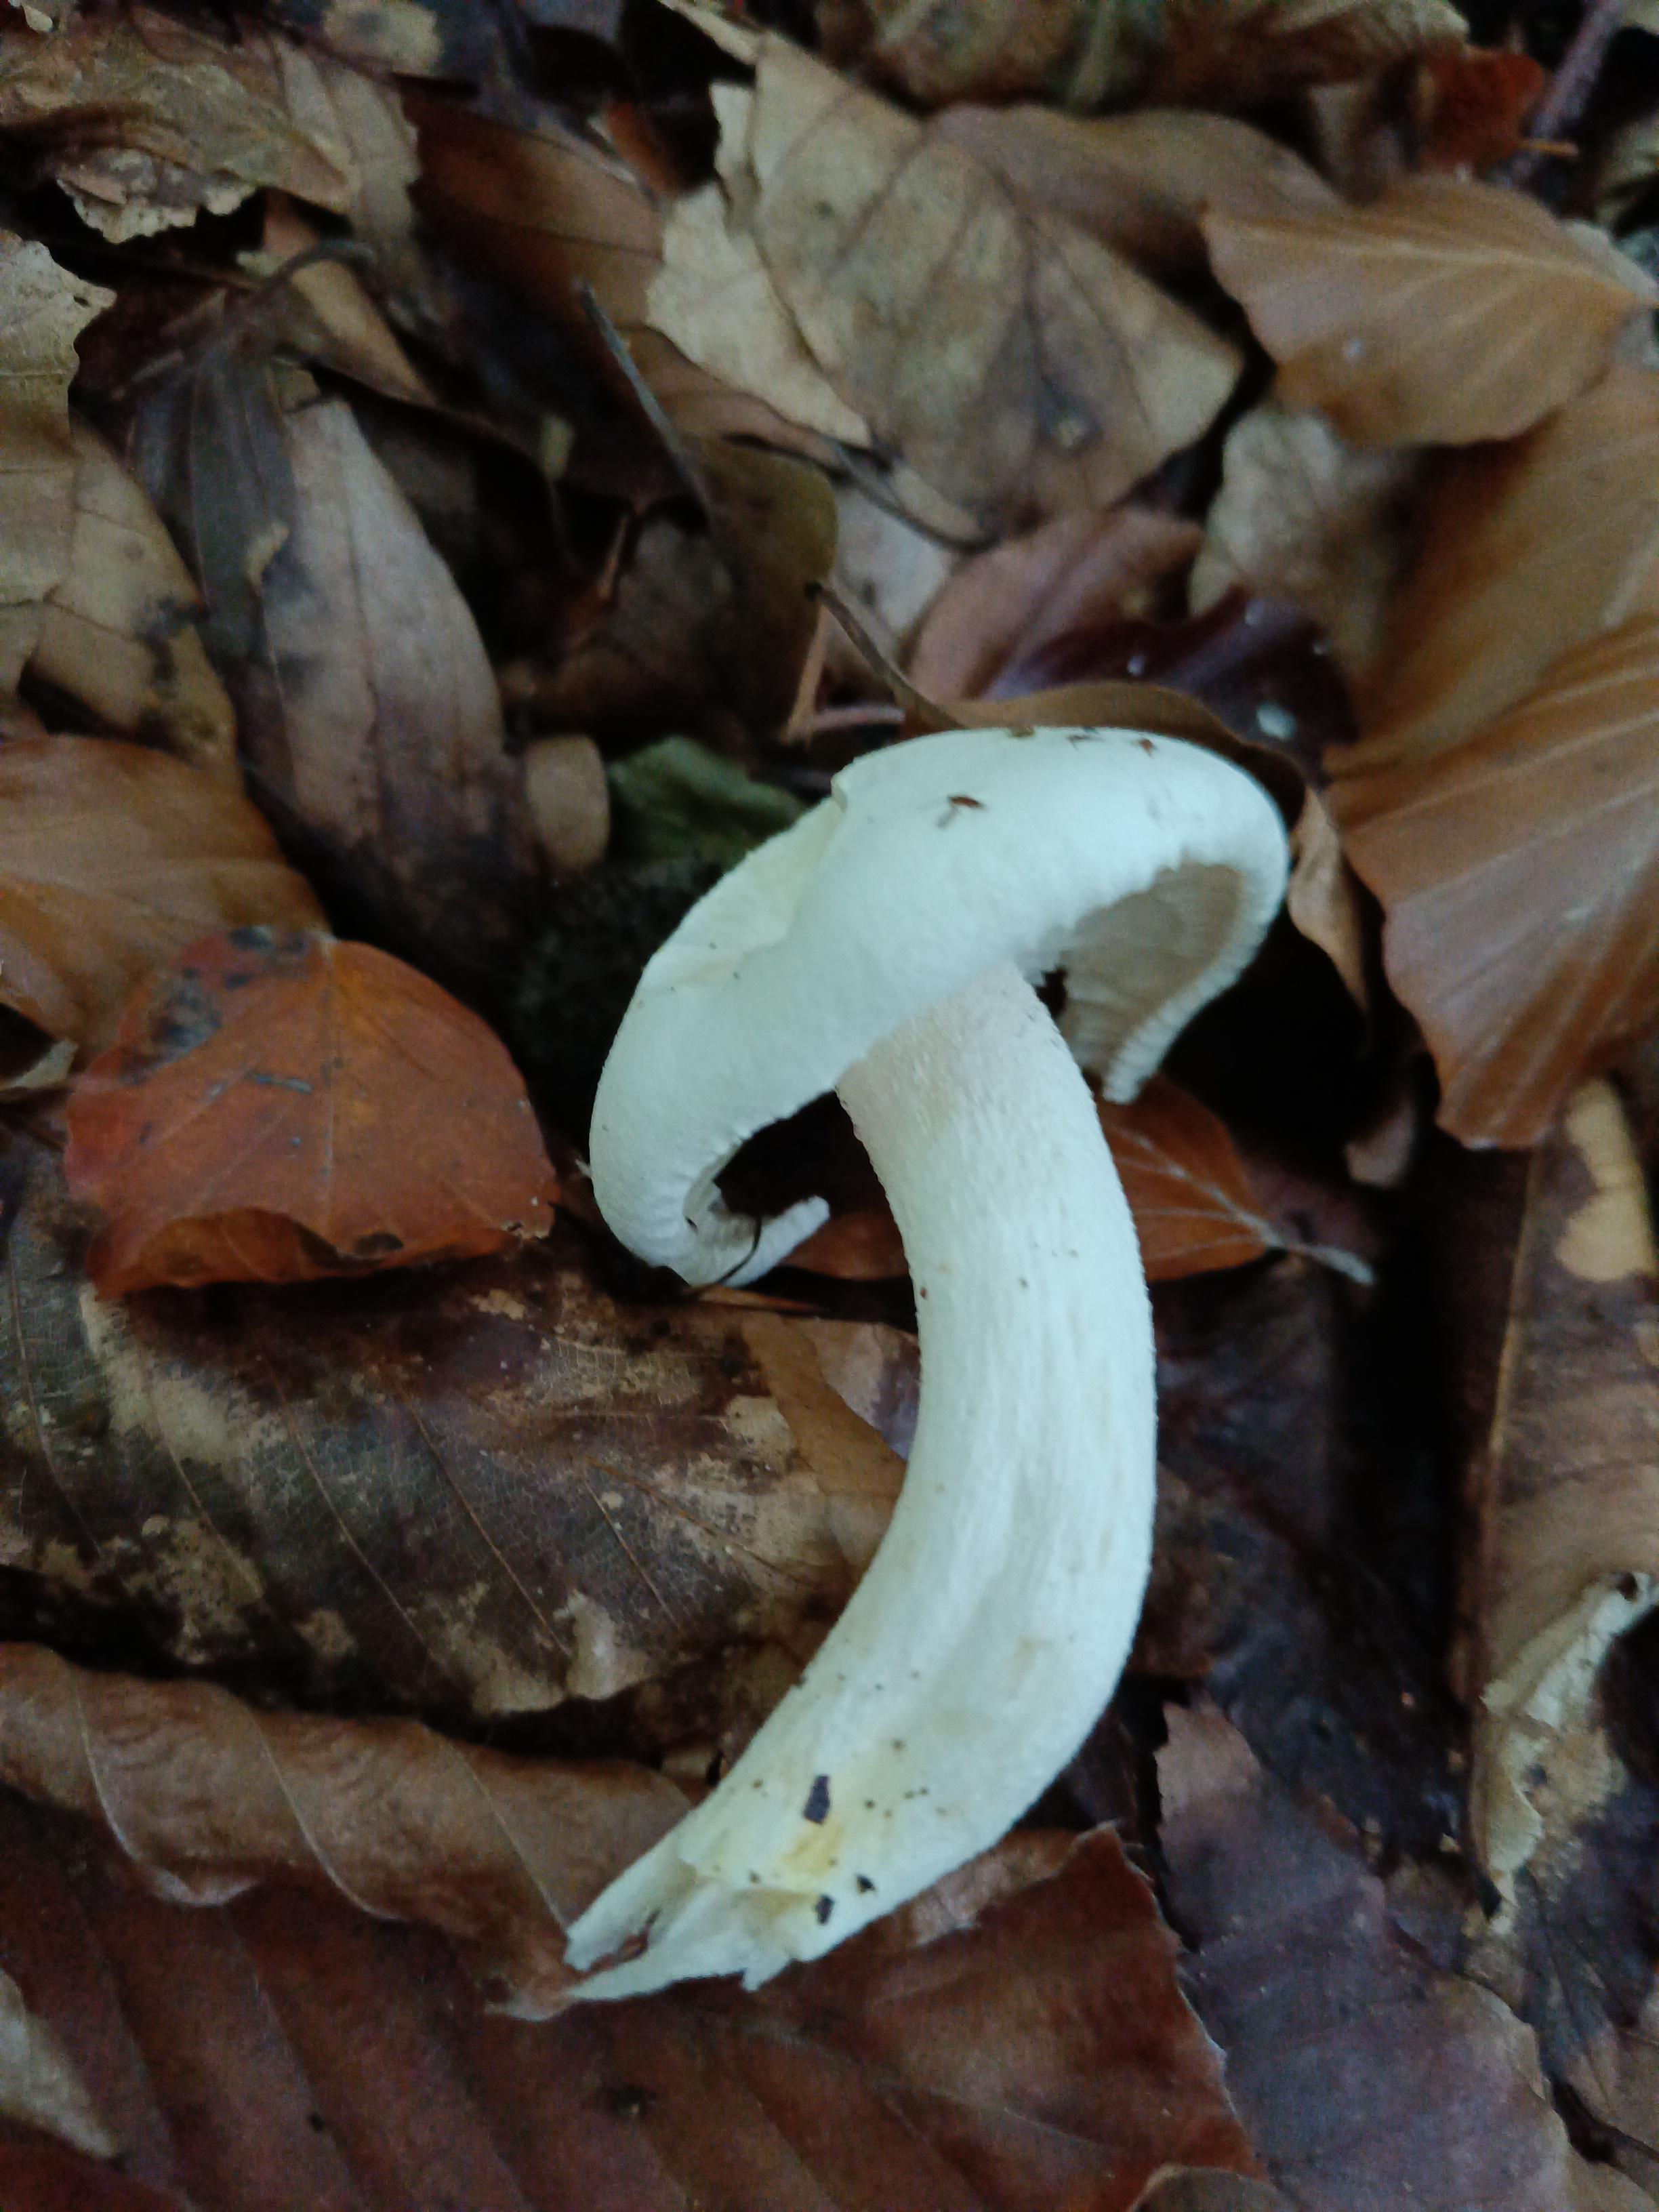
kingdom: Fungi
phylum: Basidiomycota
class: Agaricomycetes
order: Agaricales
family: Hygrophoraceae
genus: Hygrophorus
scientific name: Hygrophorus chrysodon
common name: gulfnugget sneglehat
